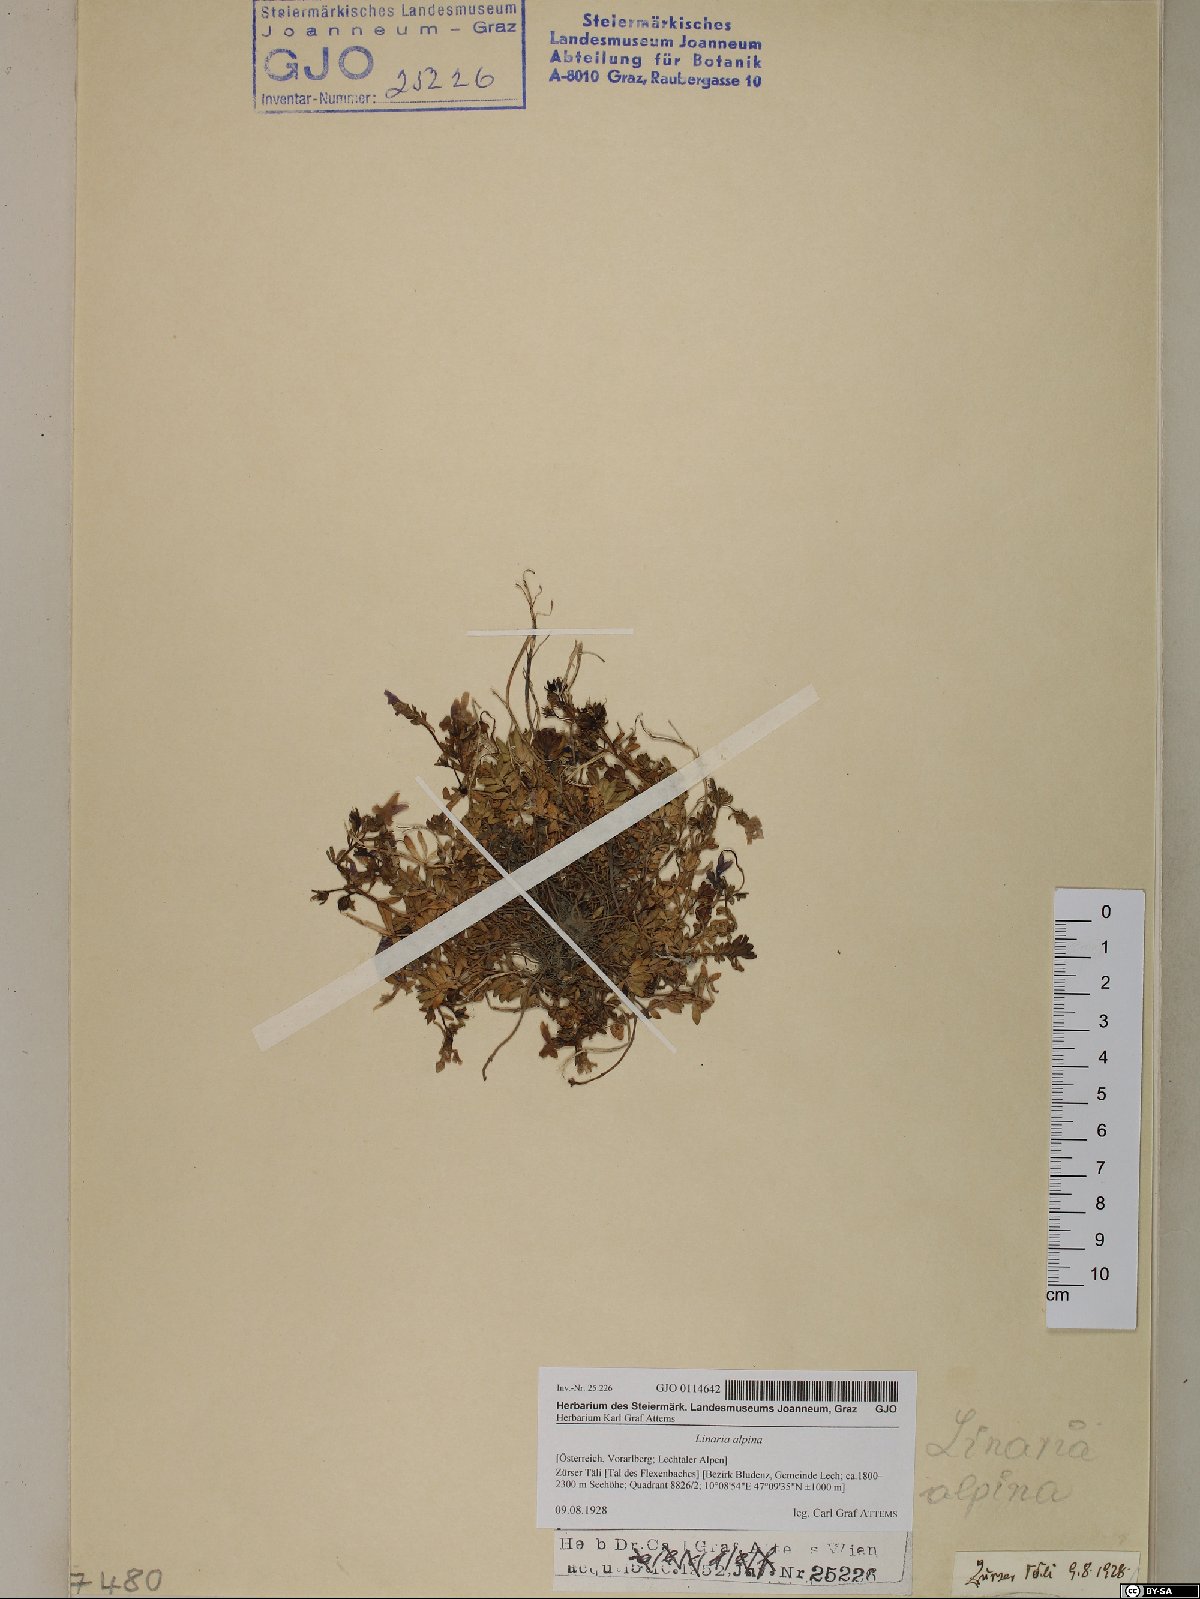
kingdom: Plantae
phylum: Tracheophyta
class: Magnoliopsida
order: Lamiales
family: Plantaginaceae
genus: Linaria
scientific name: Linaria alpina
